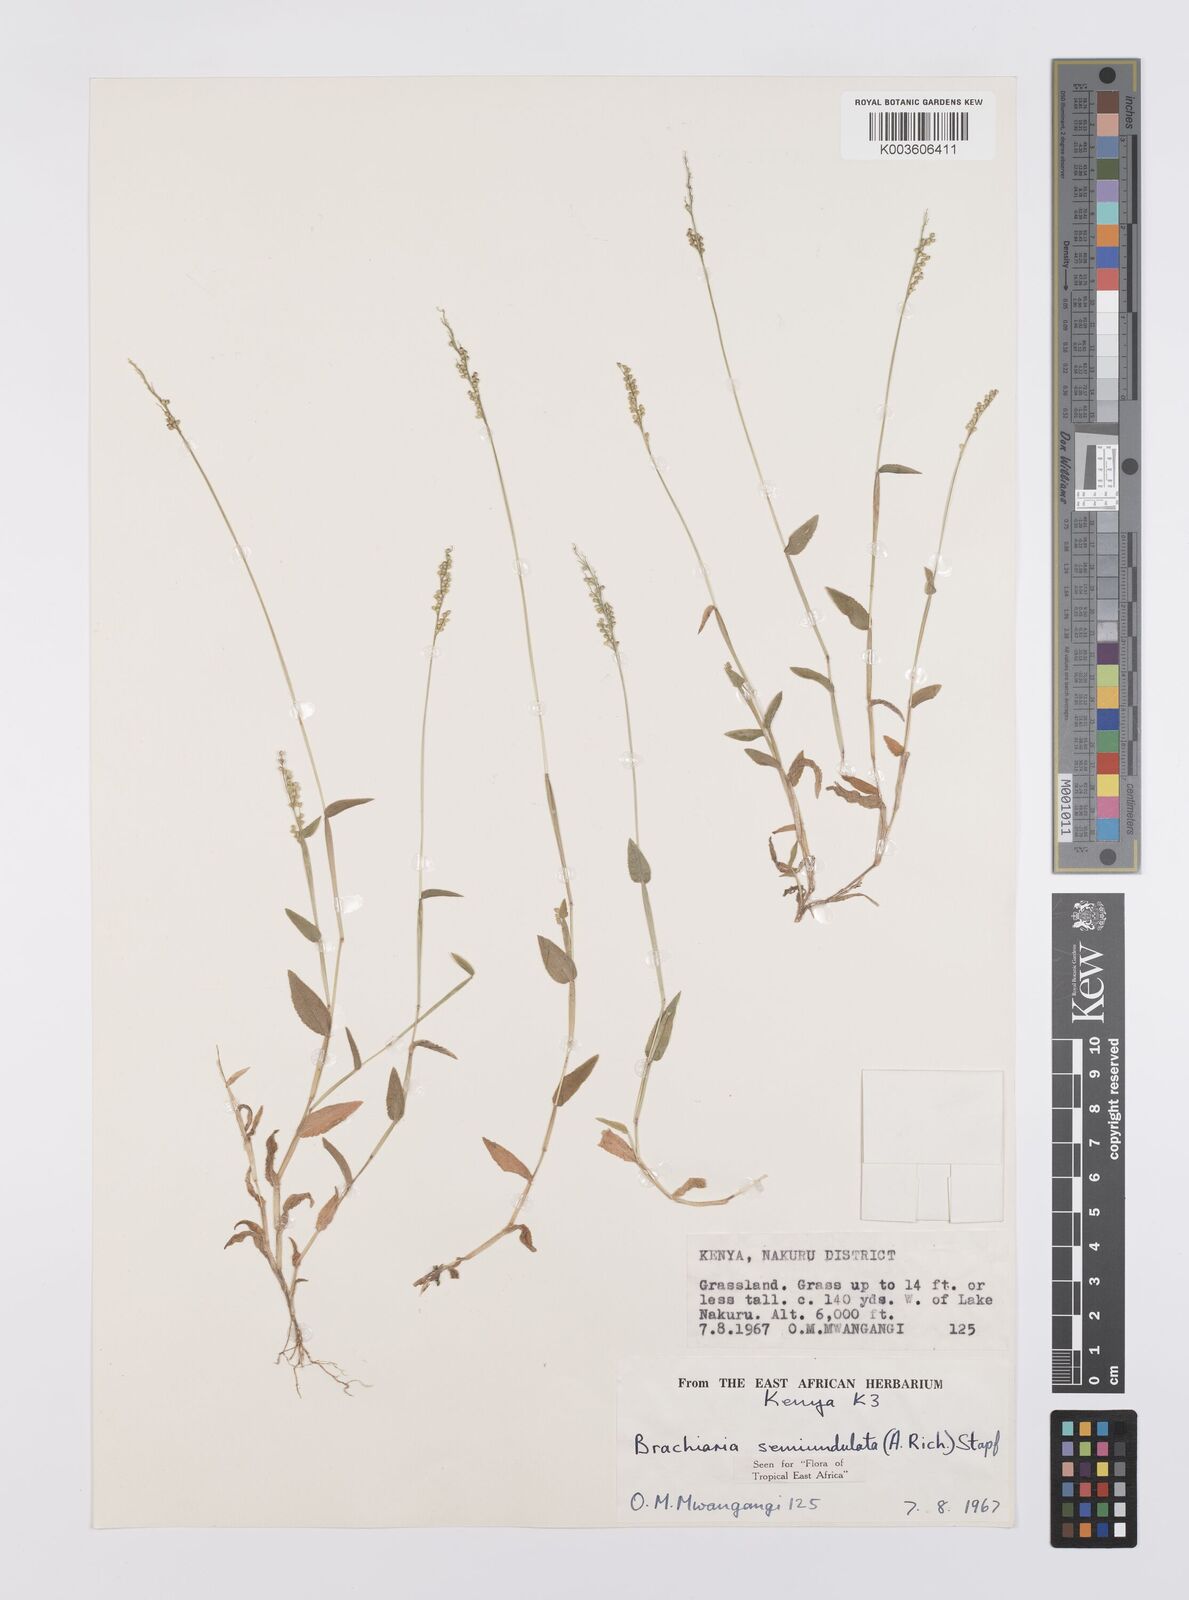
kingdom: Plantae
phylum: Tracheophyta
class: Liliopsida
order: Poales
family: Poaceae
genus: Urochloa
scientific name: Urochloa semiundulata
